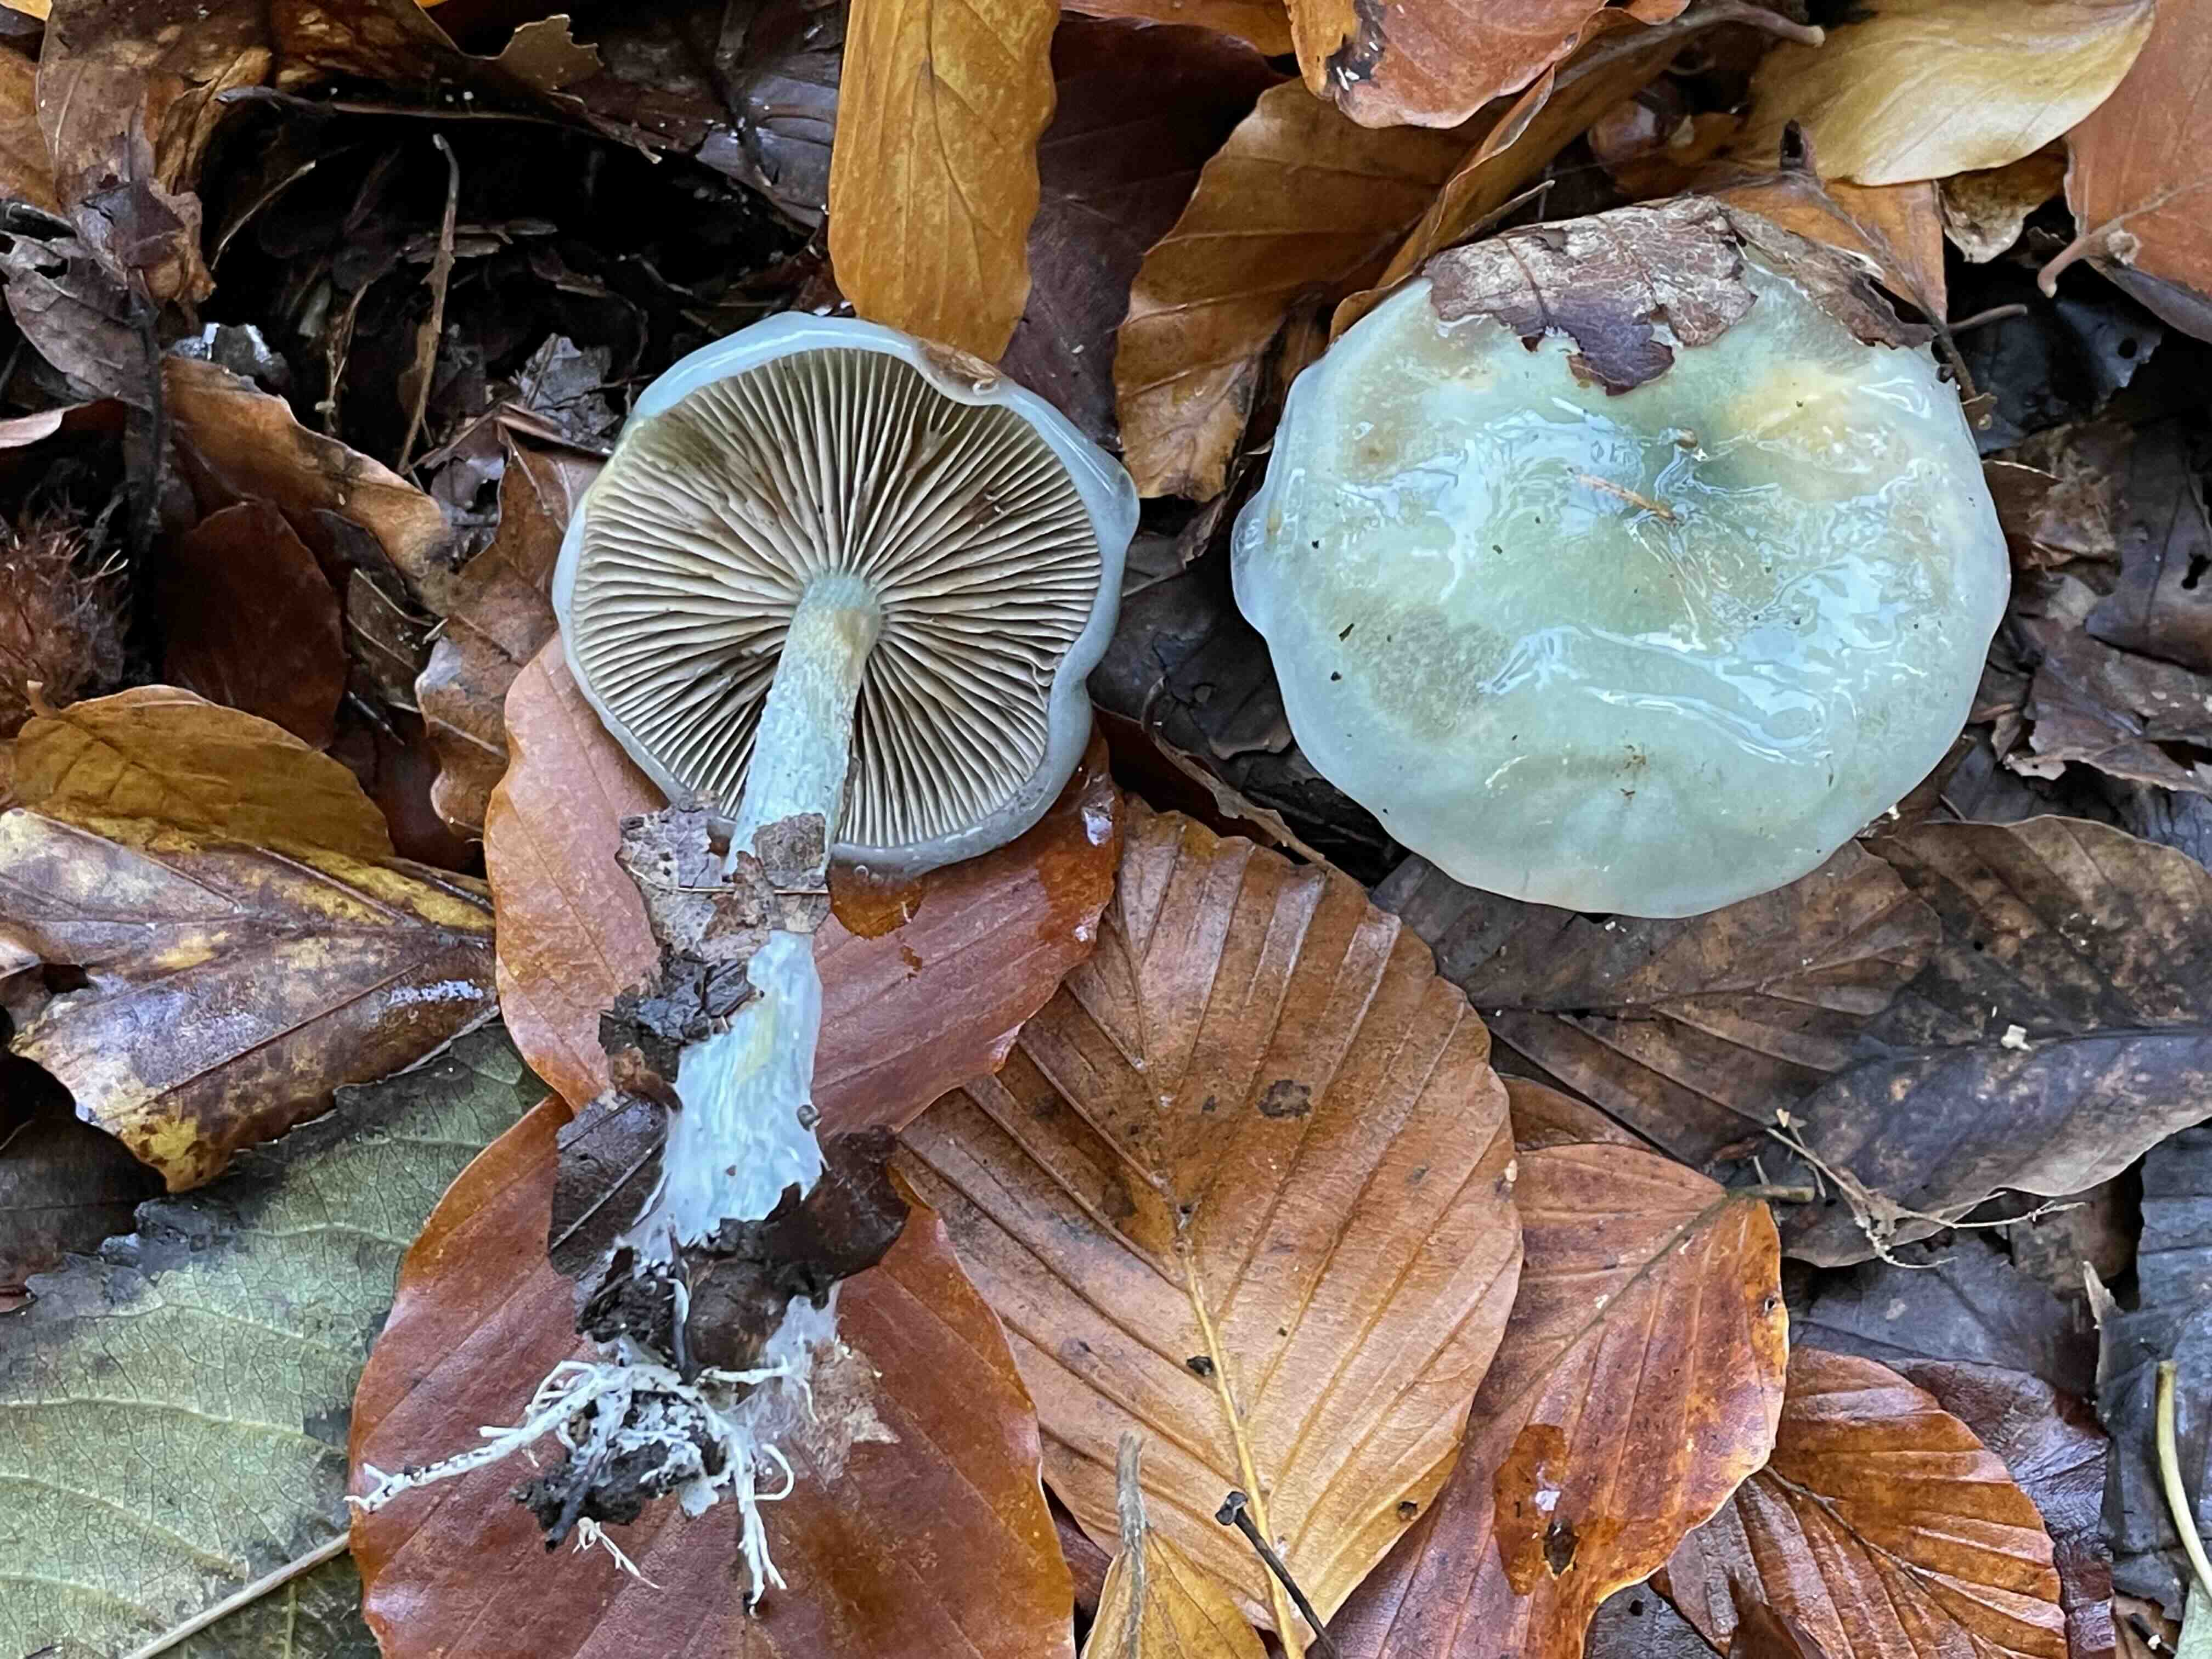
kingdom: Fungi
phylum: Basidiomycota
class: Agaricomycetes
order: Agaricales
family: Strophariaceae
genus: Stropharia
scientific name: Stropharia cyanea
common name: blågrøn bredblad
